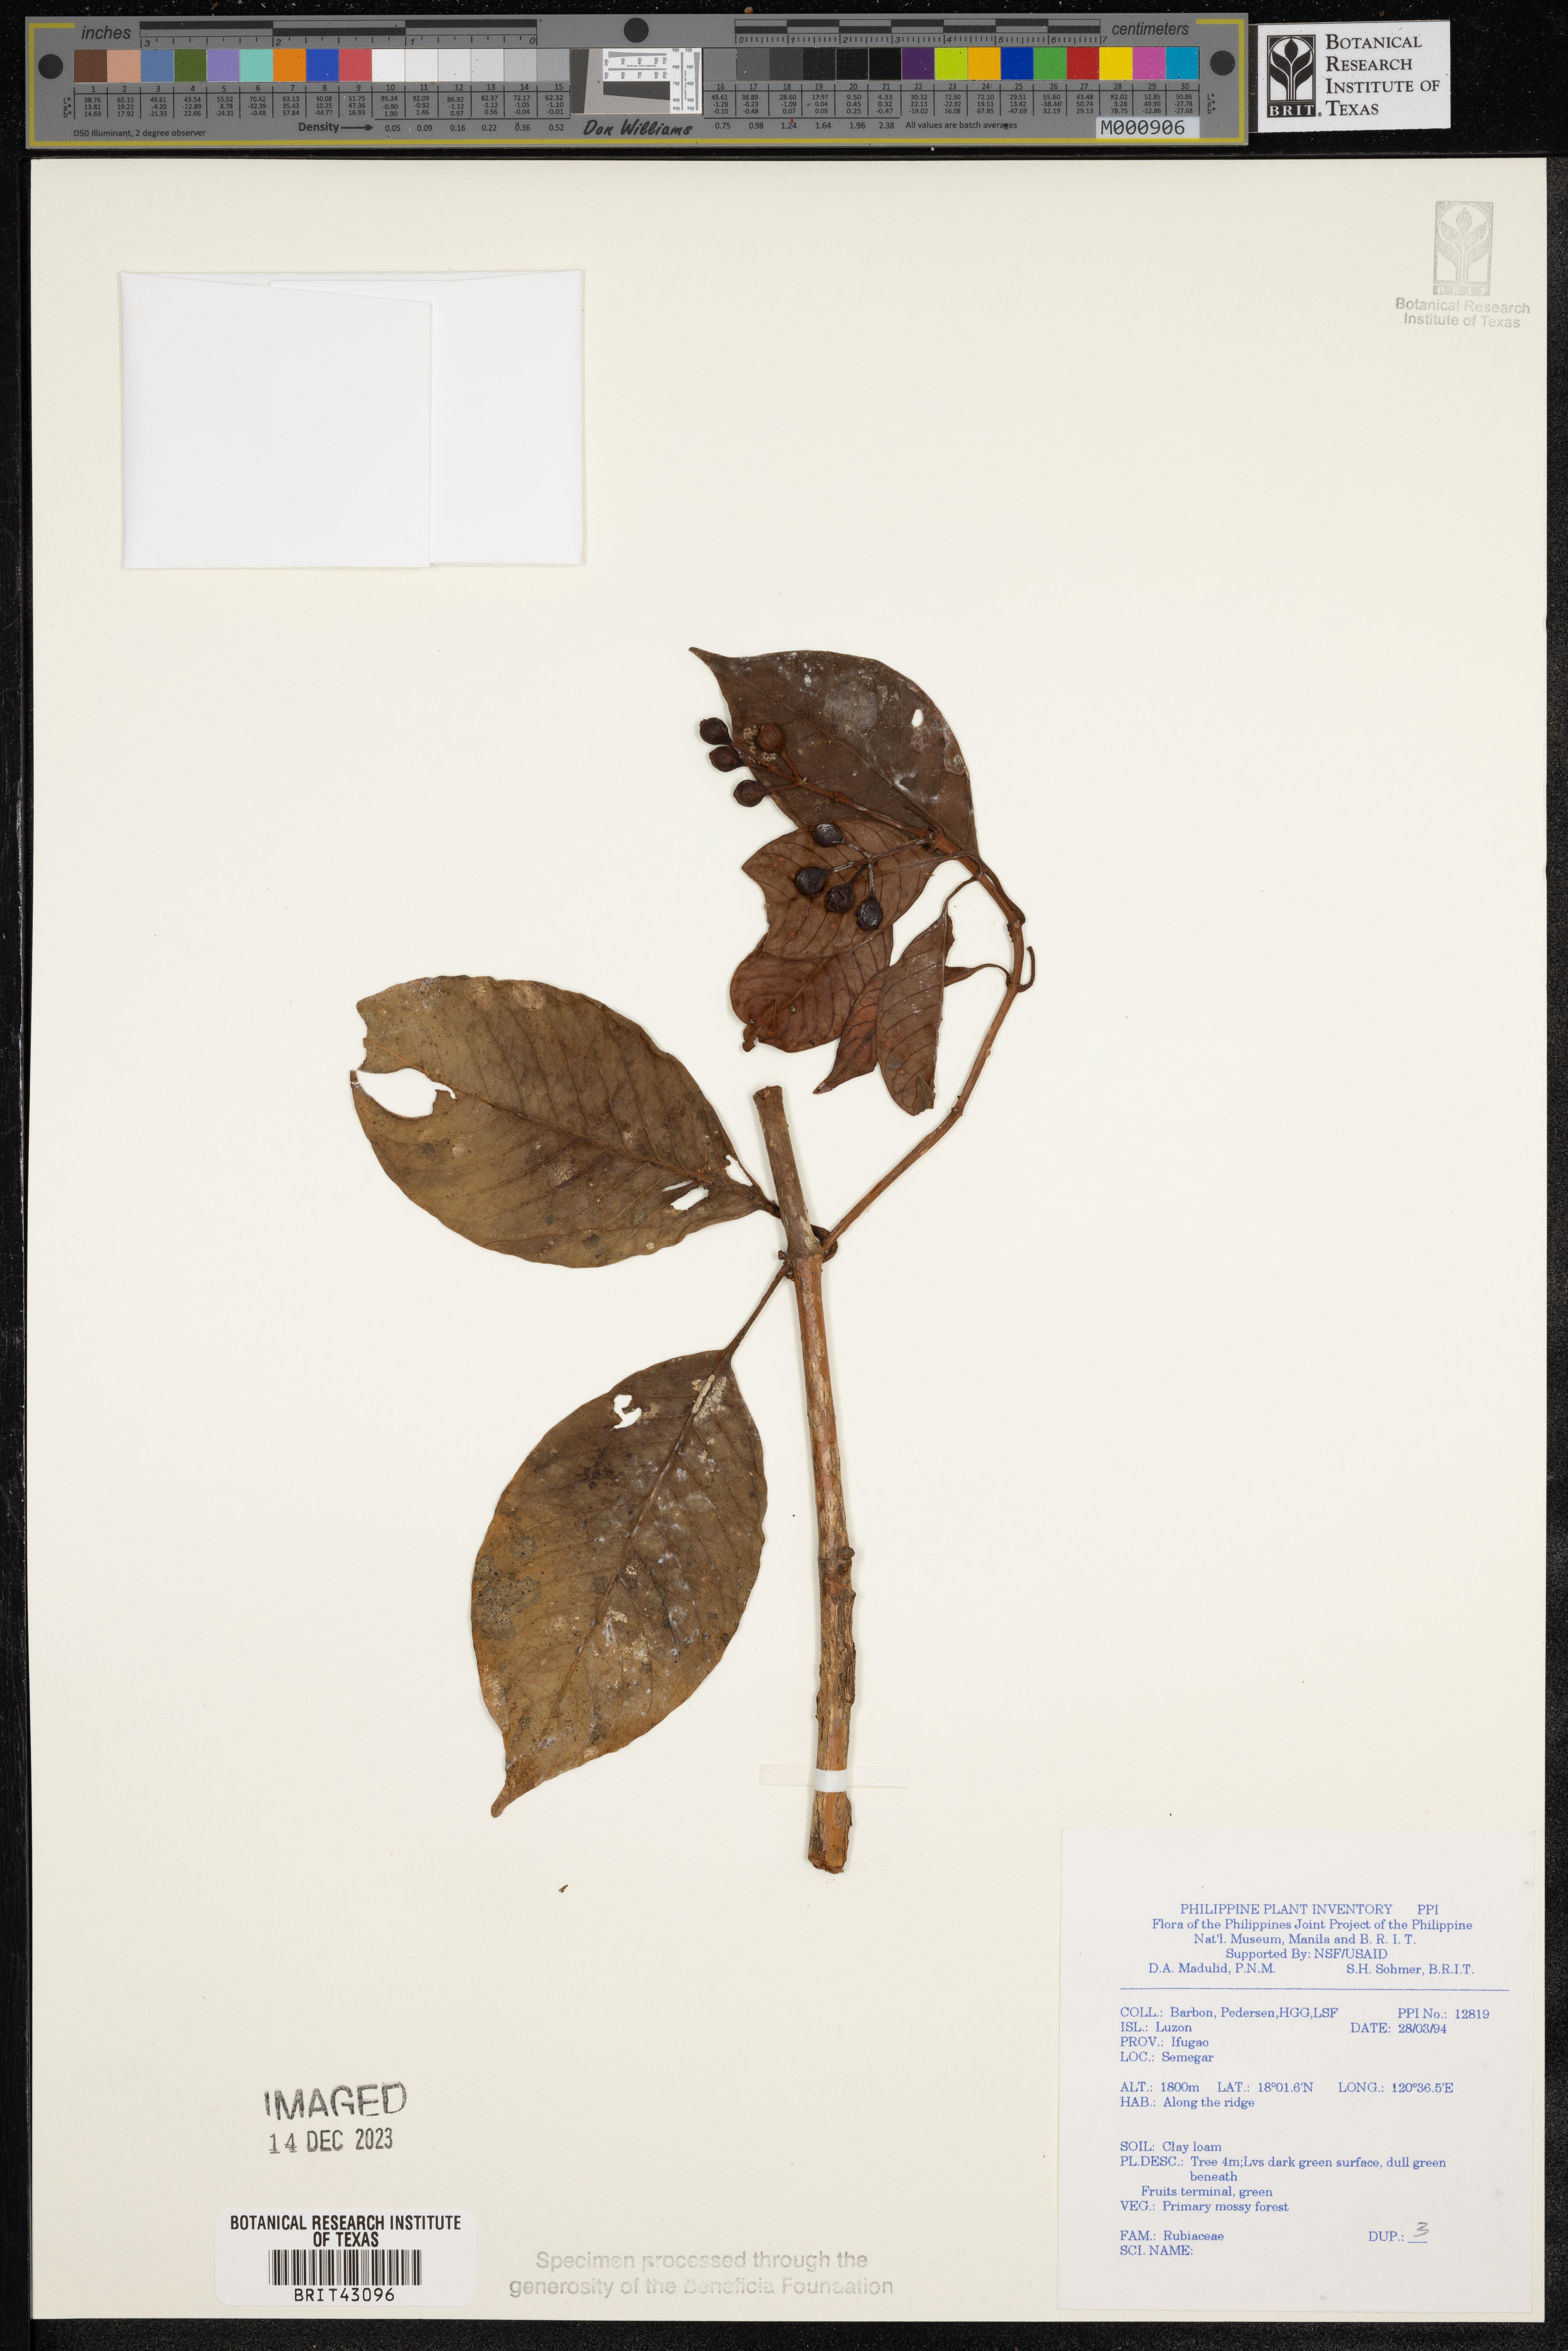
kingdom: Plantae
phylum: Tracheophyta
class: Magnoliopsida
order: Gentianales
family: Rubiaceae
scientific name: Rubiaceae
